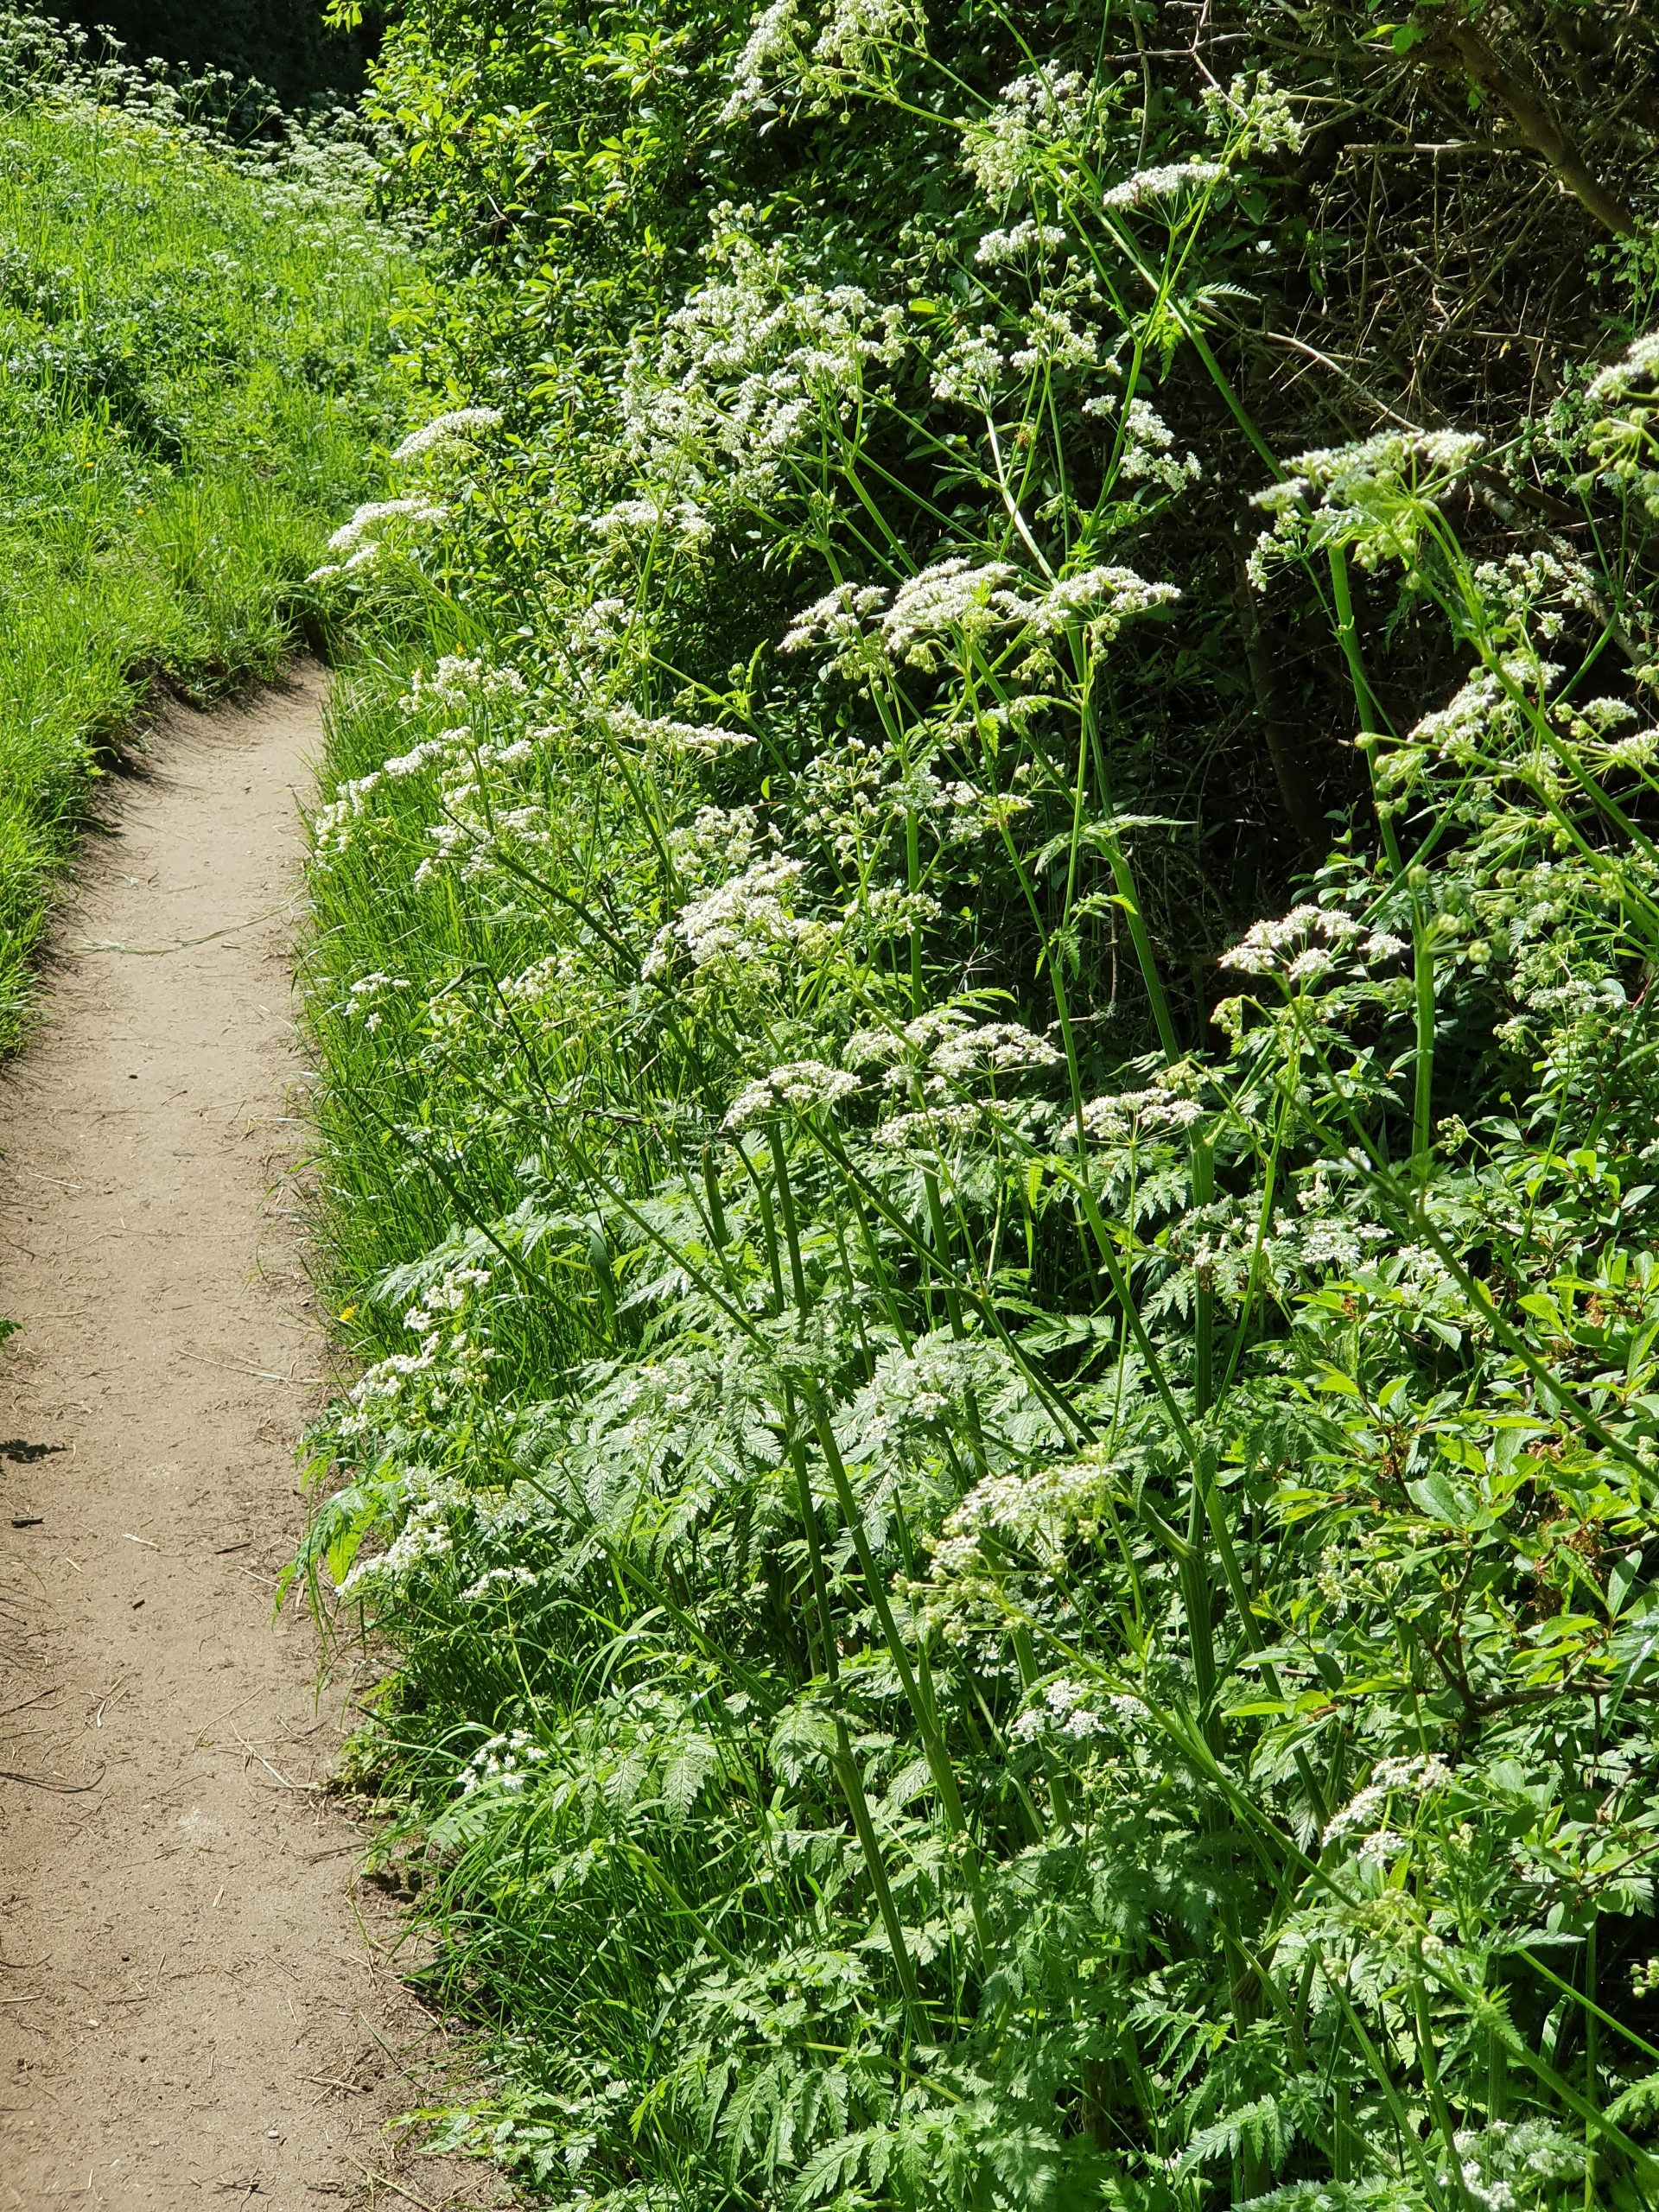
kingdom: Plantae
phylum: Tracheophyta
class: Magnoliopsida
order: Apiales
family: Apiaceae
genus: Anthriscus
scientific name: Anthriscus sylvestris
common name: Vild kørvel
